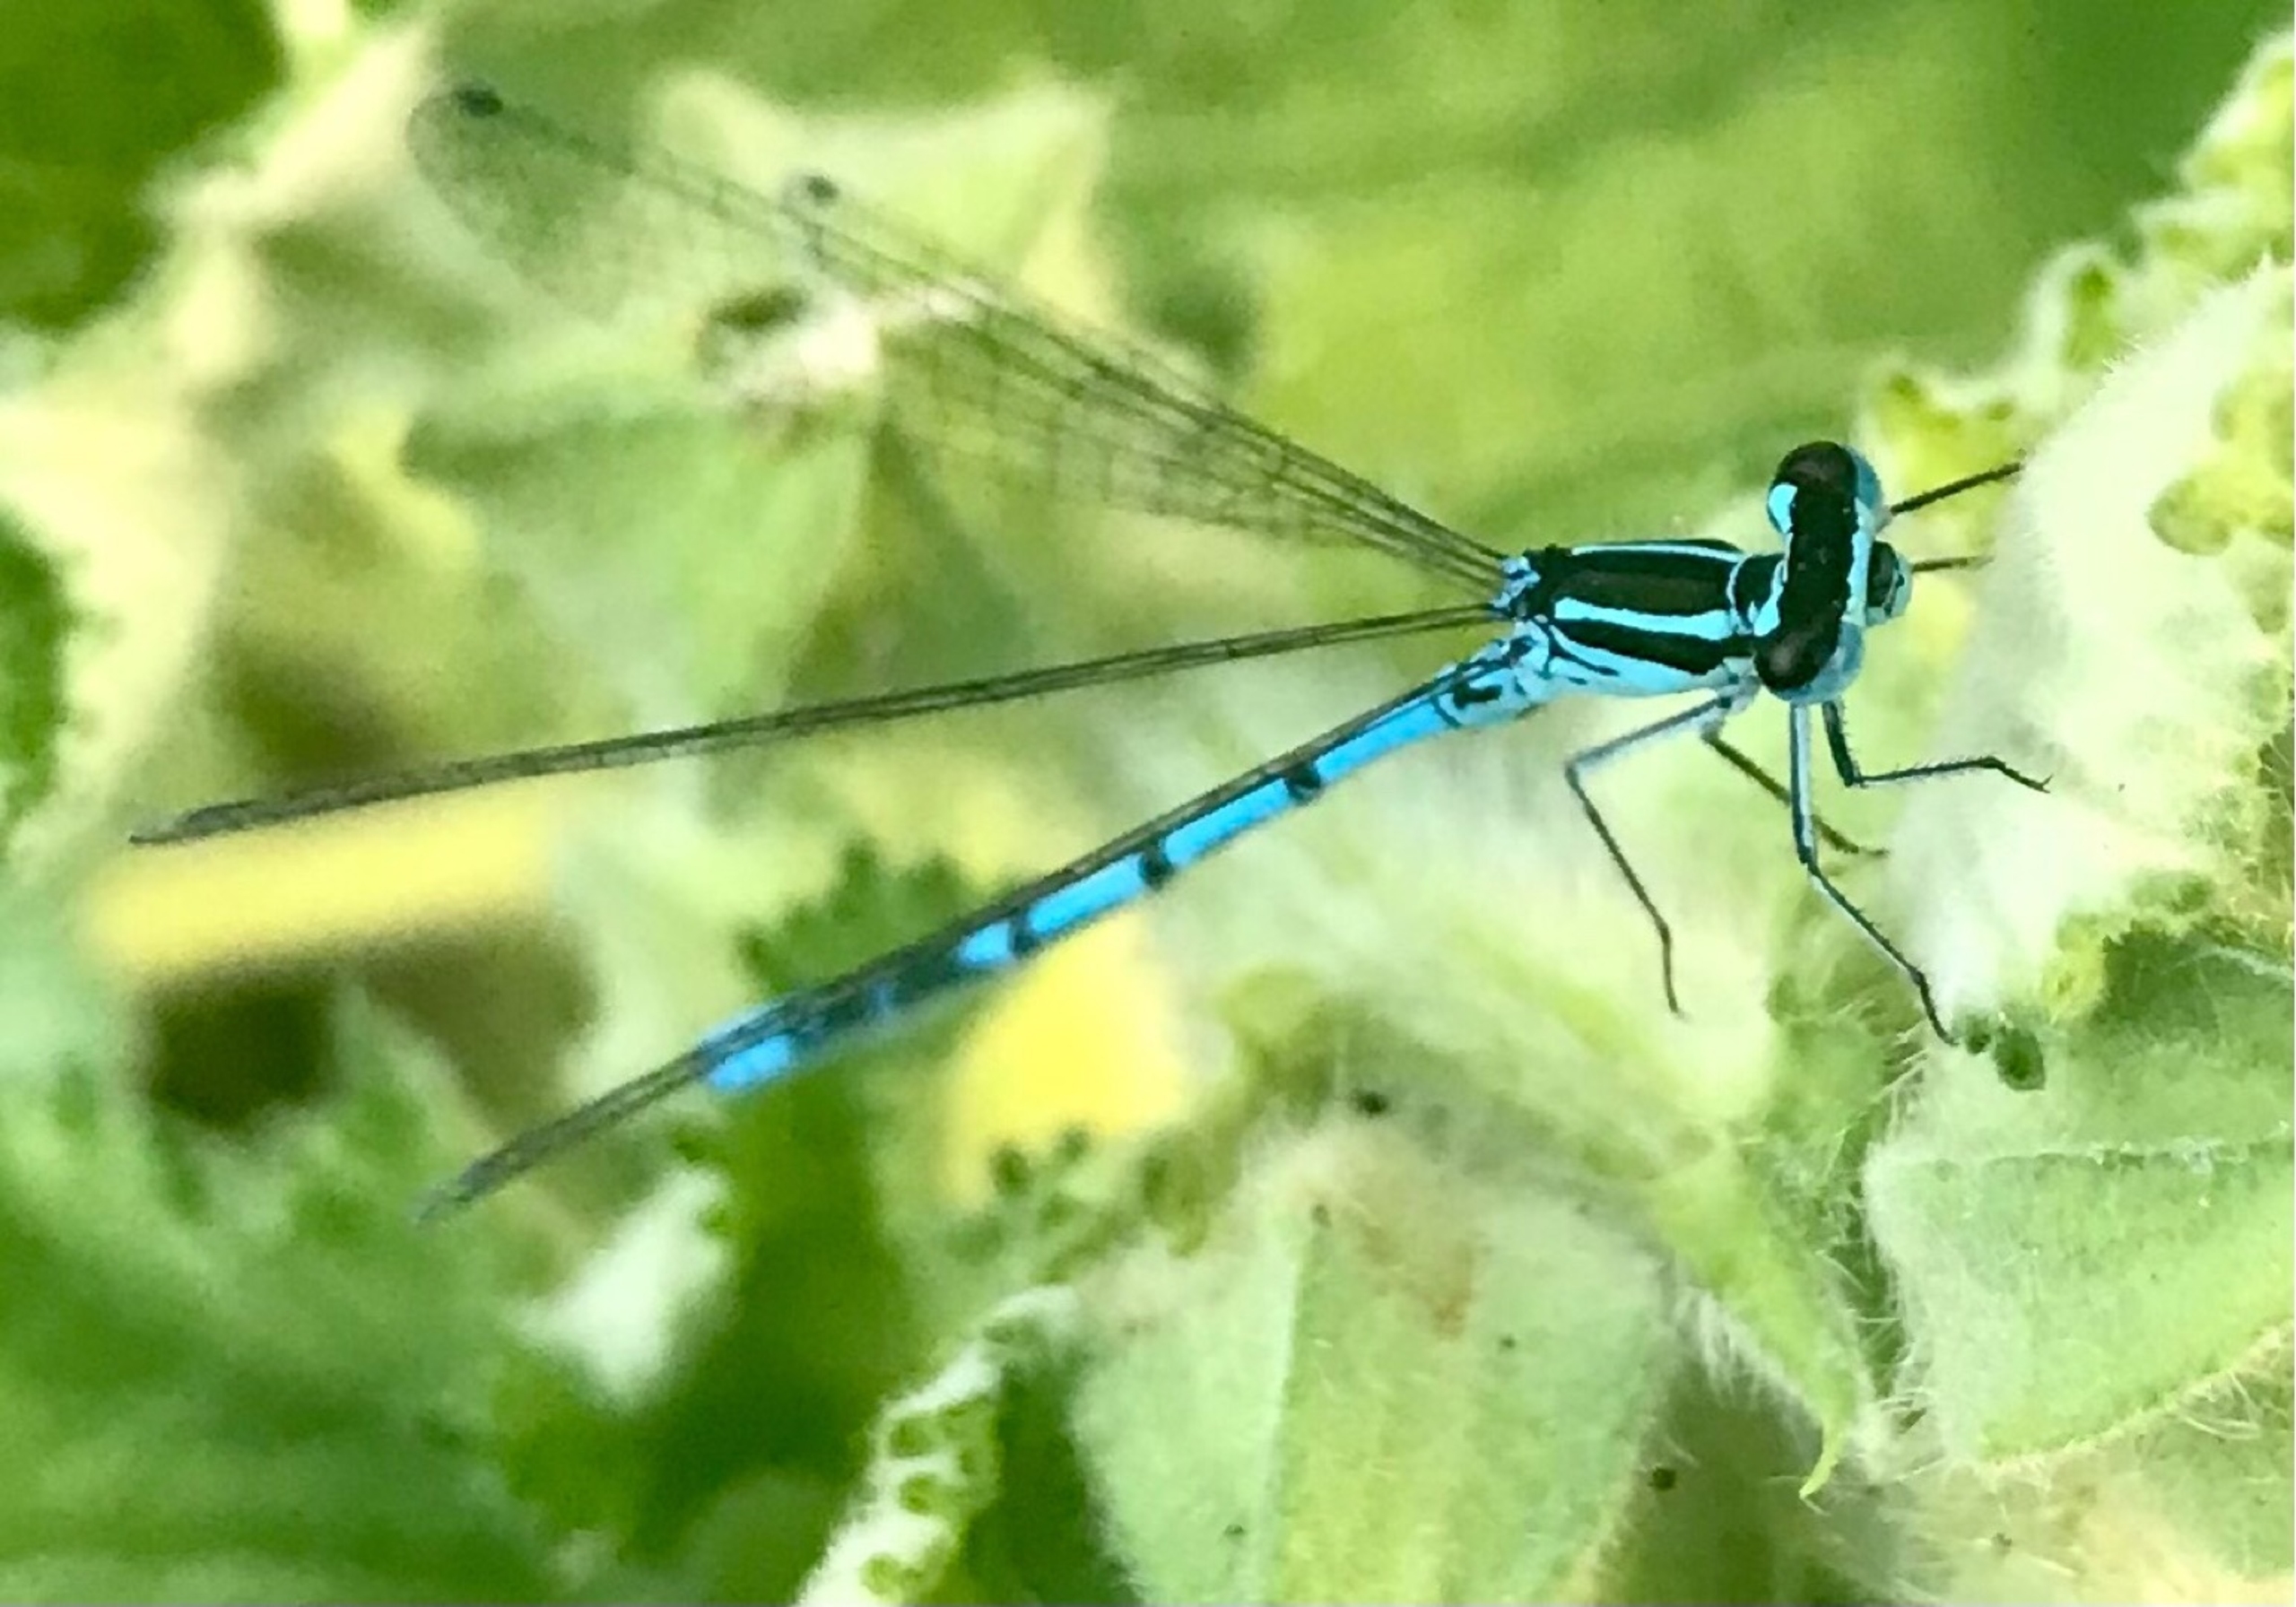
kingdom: Animalia
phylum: Arthropoda
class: Insecta
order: Odonata
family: Coenagrionidae
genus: Coenagrion
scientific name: Coenagrion puella
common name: Hestesko-vandnymfe
